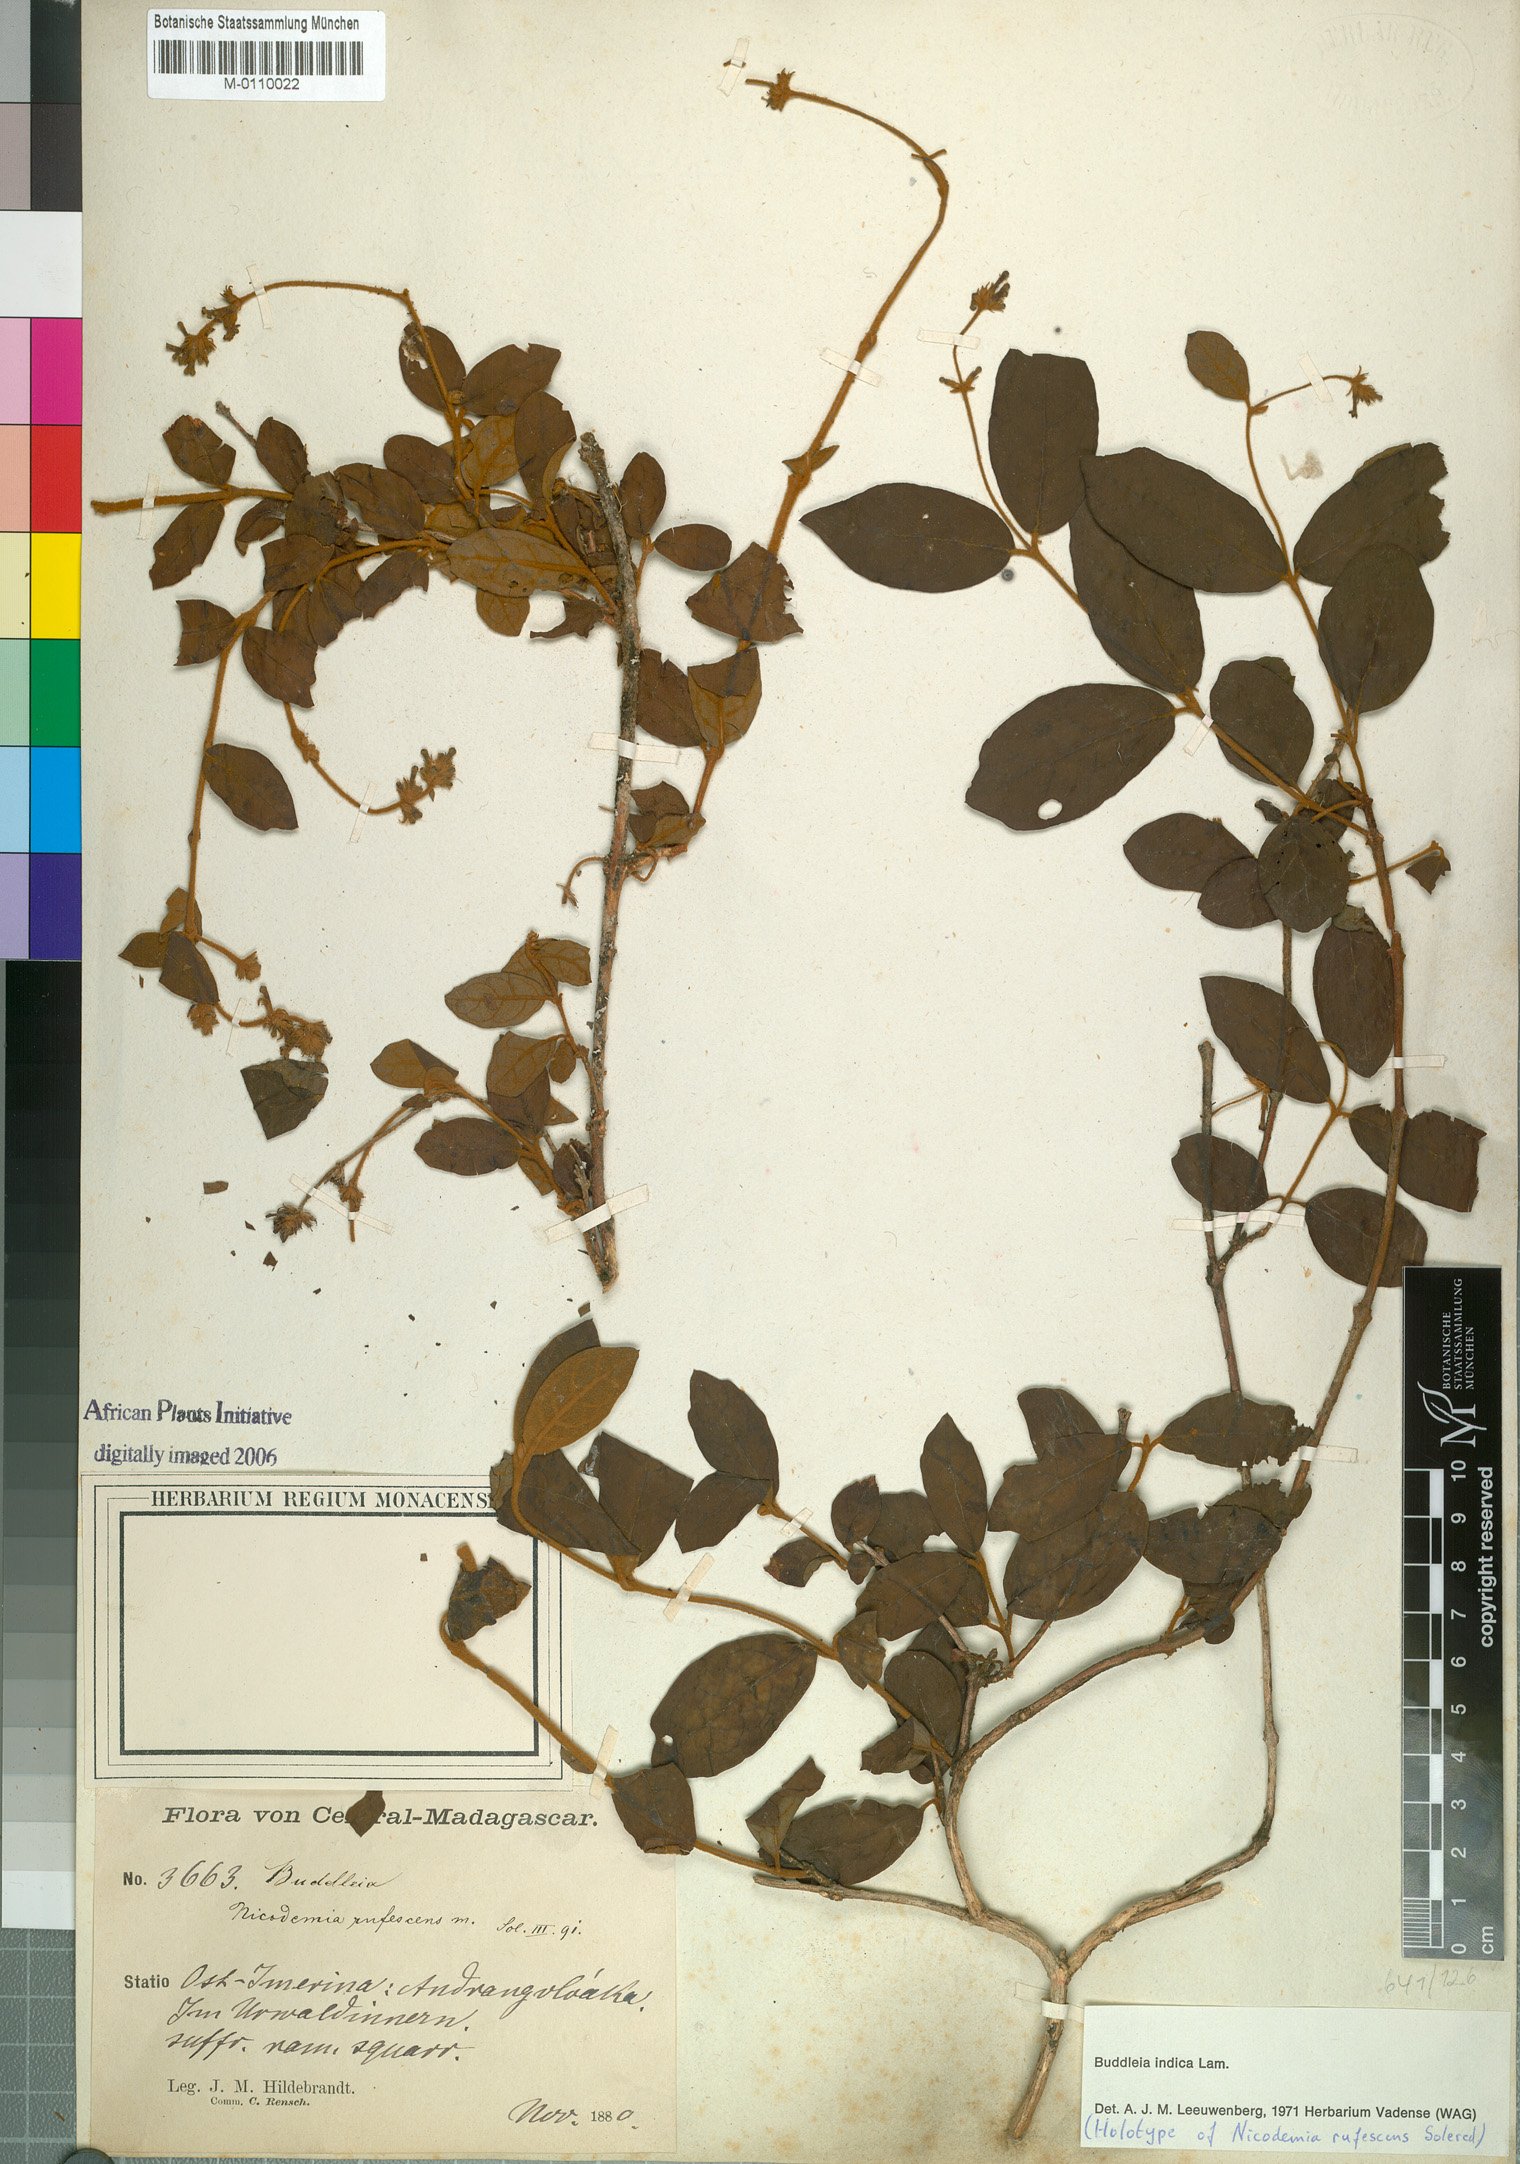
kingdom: Plantae
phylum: Tracheophyta
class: Magnoliopsida
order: Lamiales
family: Scrophulariaceae
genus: Buddleja
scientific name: Buddleja indica
